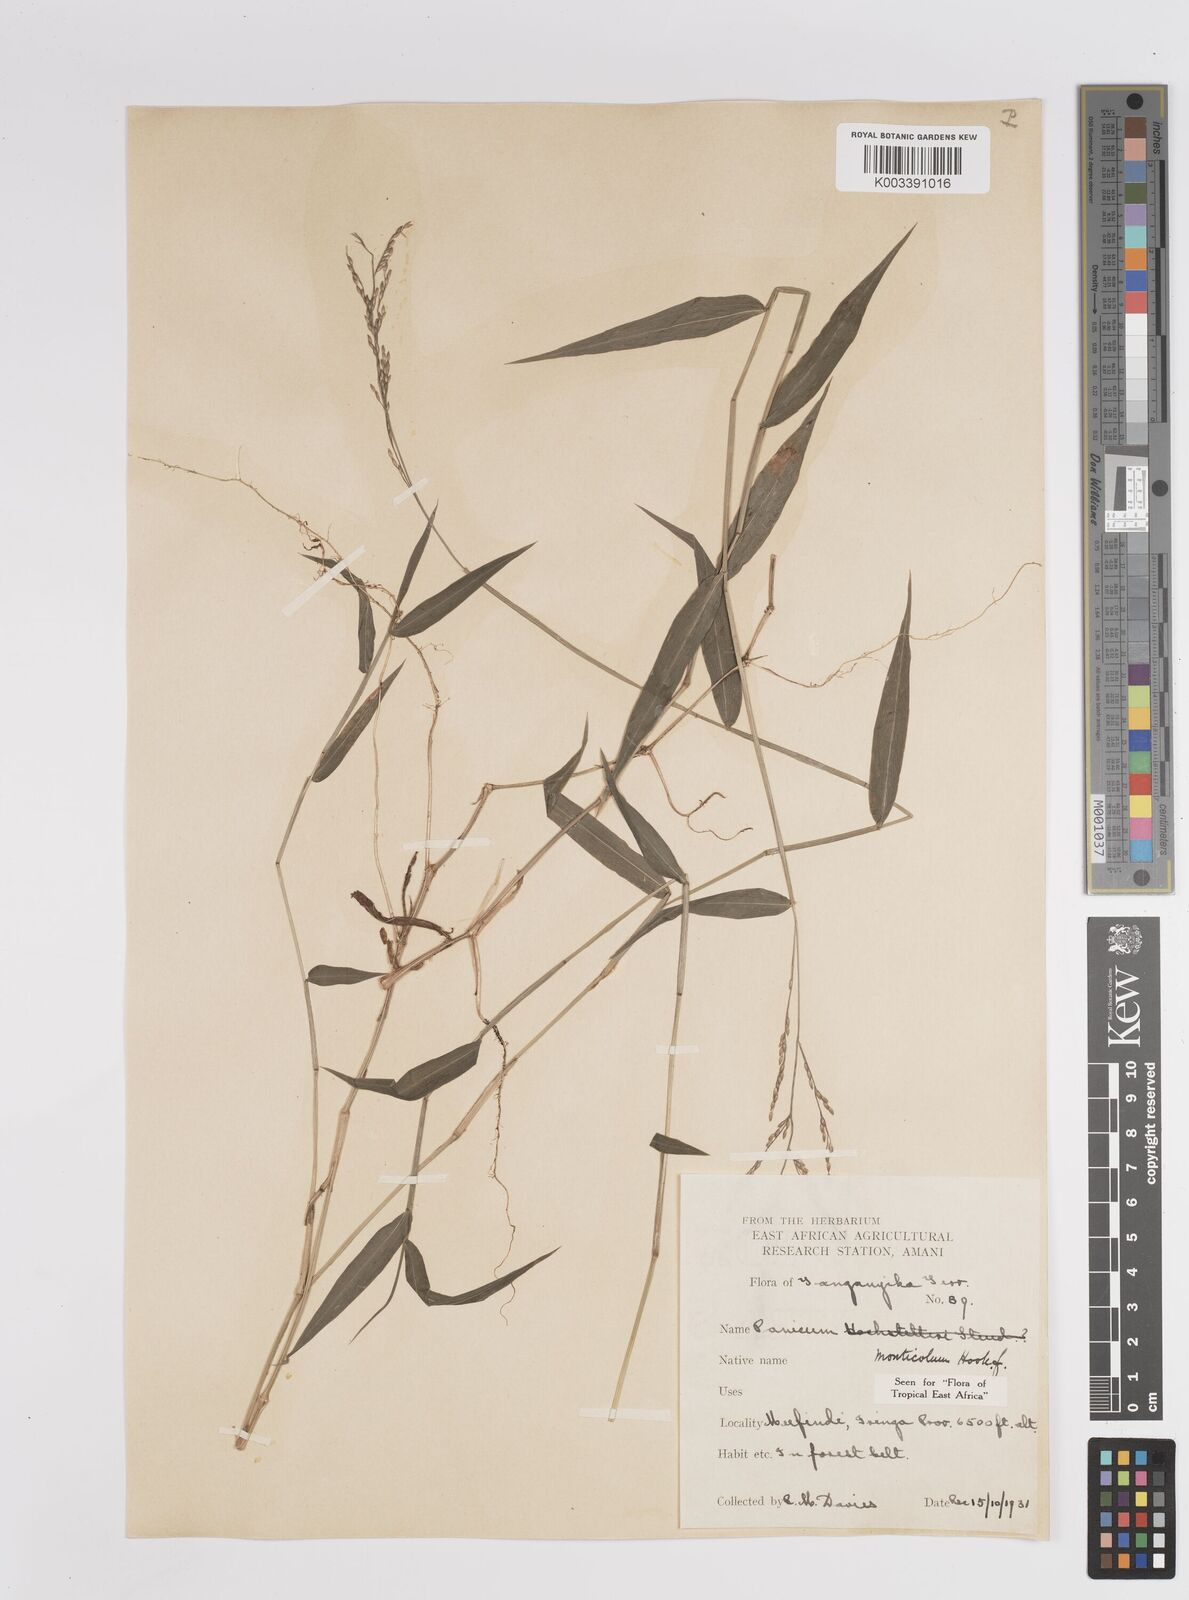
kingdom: Plantae
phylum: Tracheophyta
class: Liliopsida
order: Poales
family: Poaceae
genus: Panicum
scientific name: Panicum monticola
